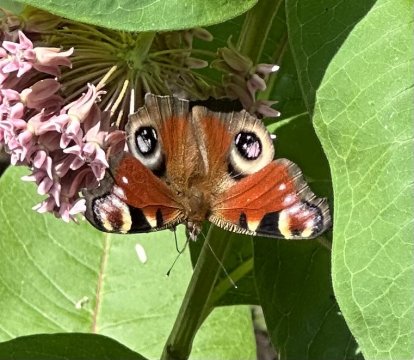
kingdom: Animalia
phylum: Arthropoda
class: Insecta
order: Lepidoptera
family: Nymphalidae
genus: Aglais
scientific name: Aglais io
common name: European Peacock
